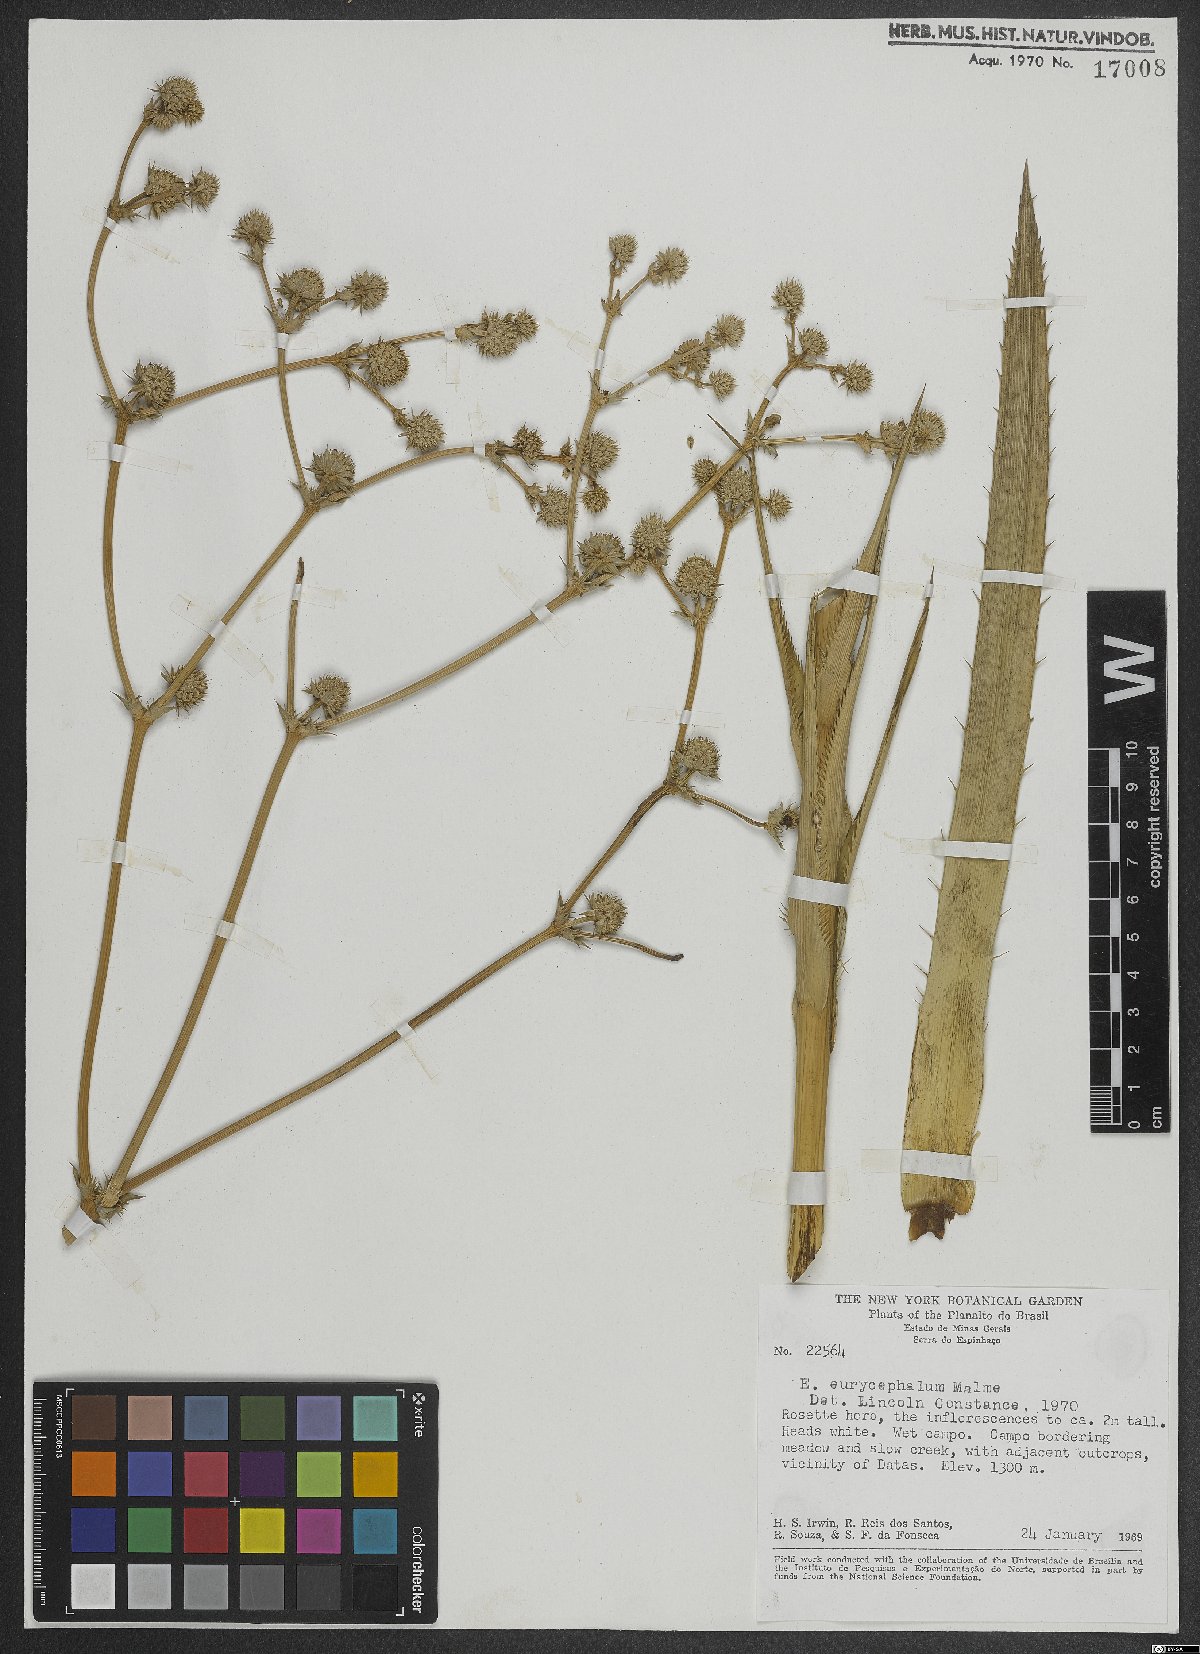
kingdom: Plantae
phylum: Tracheophyta
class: Magnoliopsida
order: Apiales
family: Apiaceae
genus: Eryngium
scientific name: Eryngium eurycephalum
